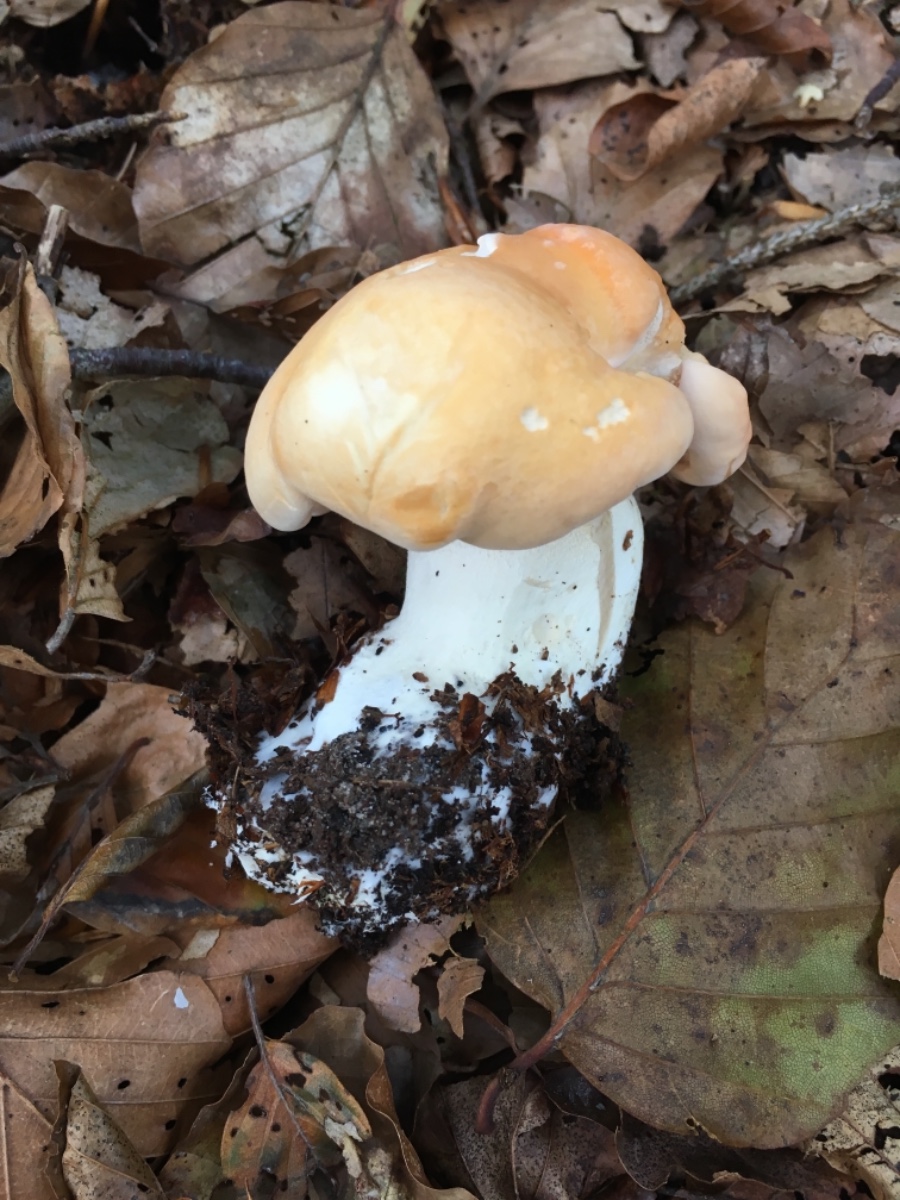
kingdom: Fungi
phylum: Basidiomycota
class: Agaricomycetes
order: Cantharellales
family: Hydnaceae
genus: Hydnum
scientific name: Hydnum repandum
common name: almindelig pigsvamp
